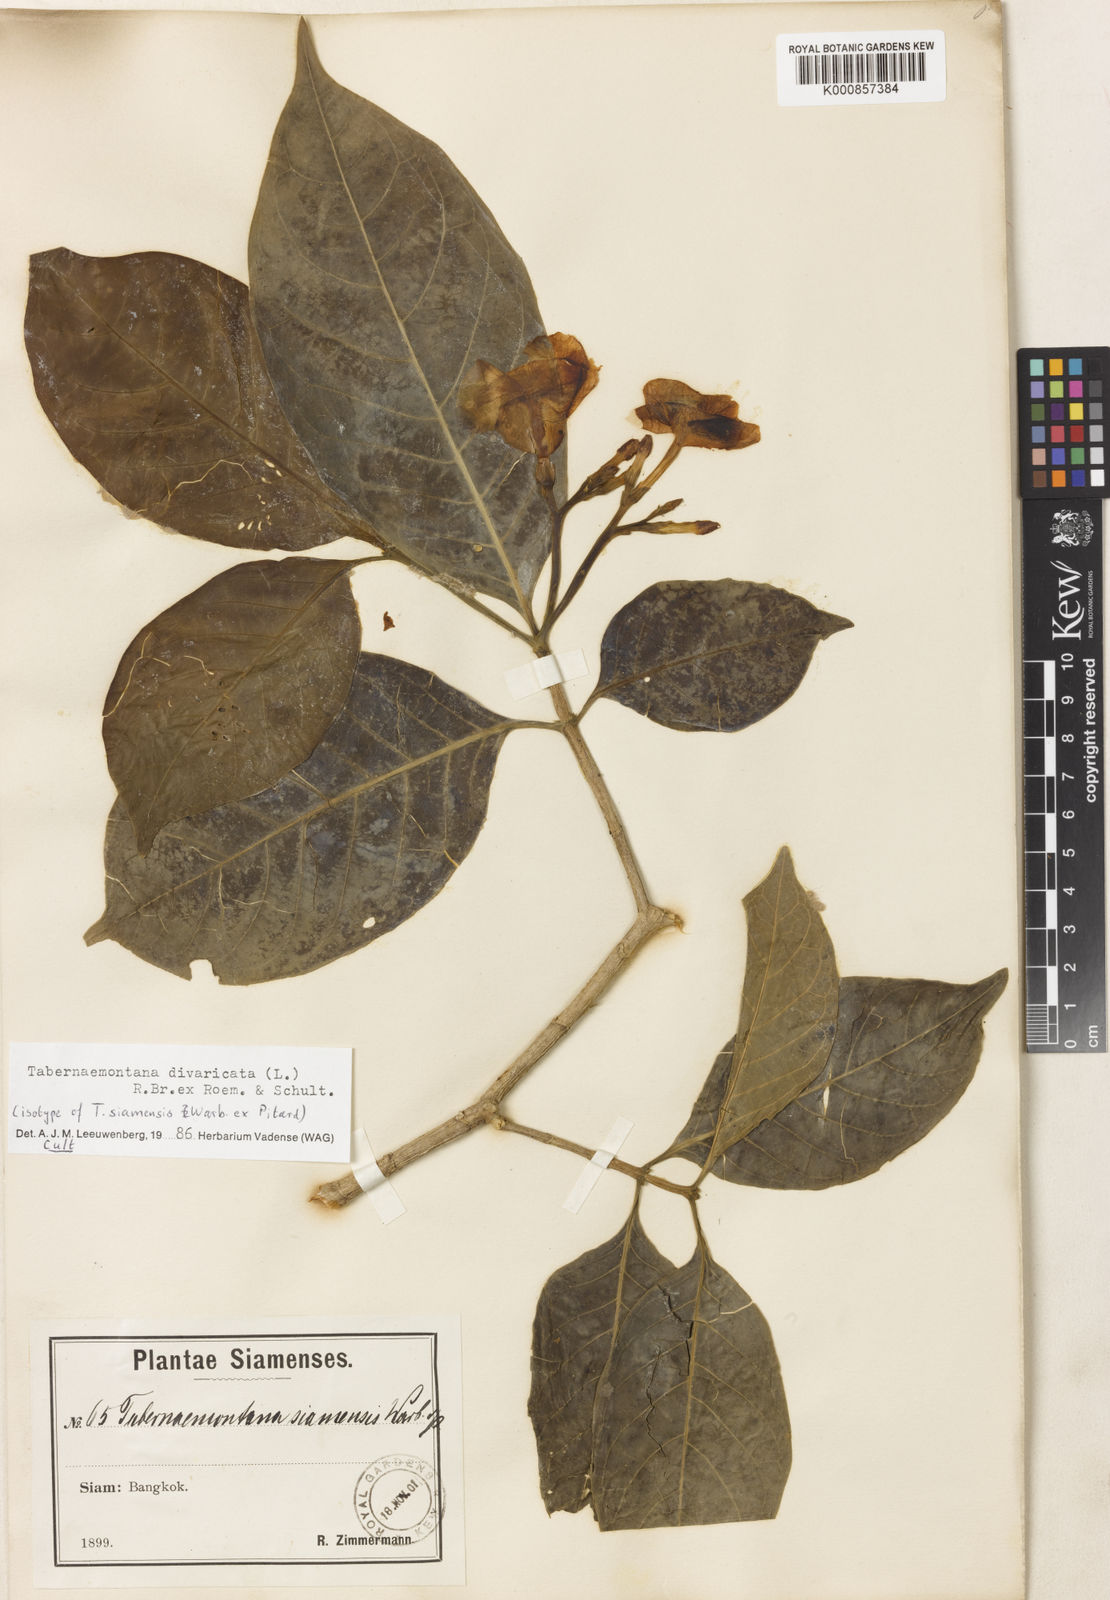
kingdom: Plantae
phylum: Tracheophyta
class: Magnoliopsida
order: Gentianales
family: Apocynaceae
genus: Tabernaemontana
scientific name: Tabernaemontana divaricata
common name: Pinwheelflower
